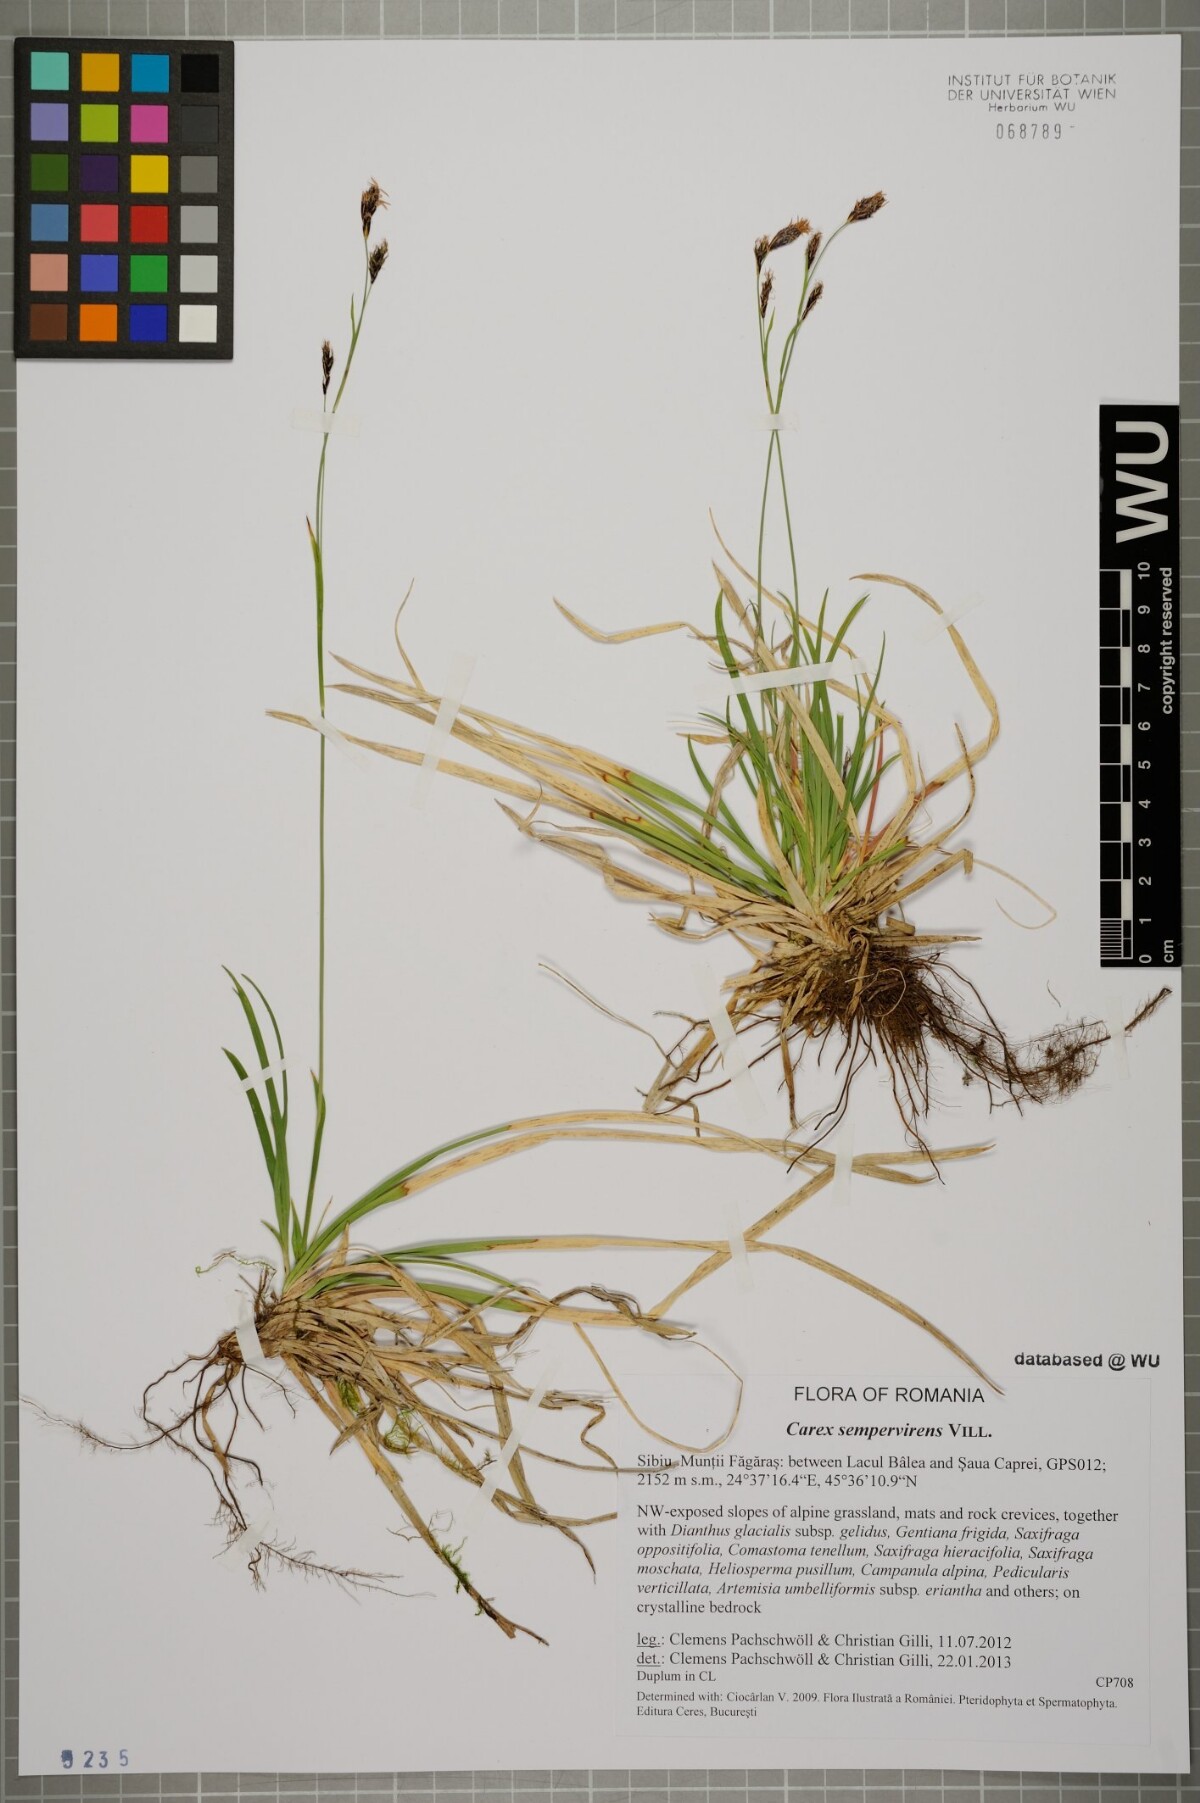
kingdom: Plantae
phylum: Tracheophyta
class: Liliopsida
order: Poales
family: Cyperaceae
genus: Carex
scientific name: Carex sempervirens
